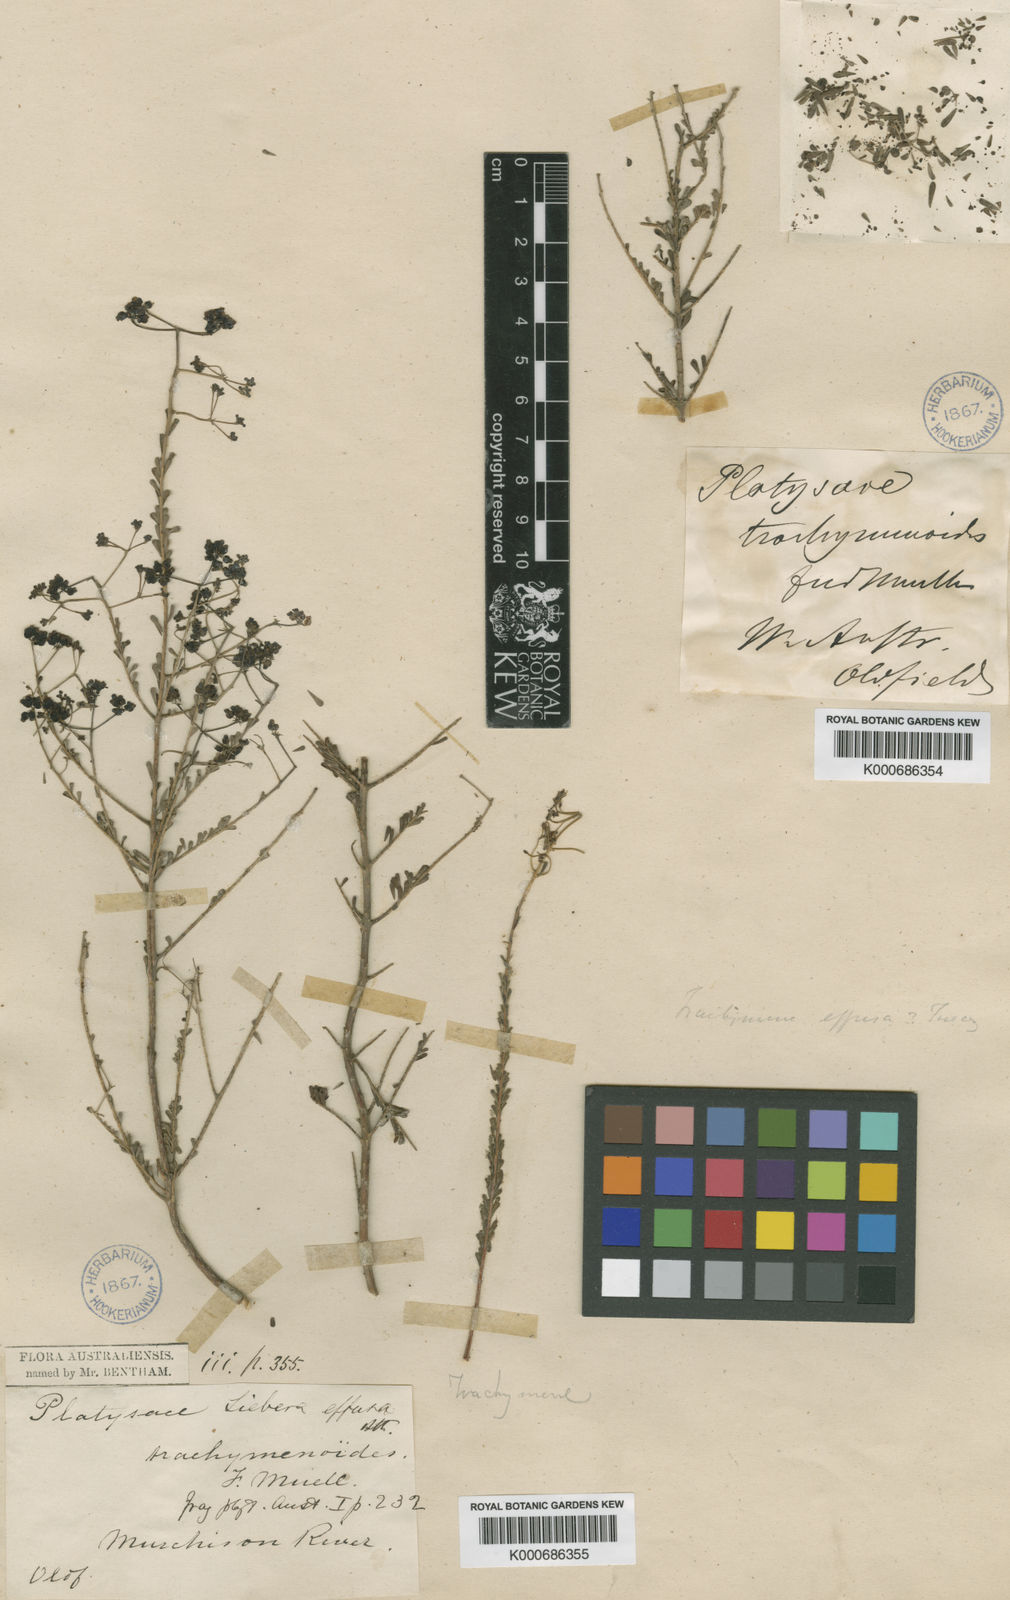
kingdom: Plantae
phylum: Tracheophyta
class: Magnoliopsida
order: Apiales
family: Apiaceae
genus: Platysace
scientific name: Platysace effusa
